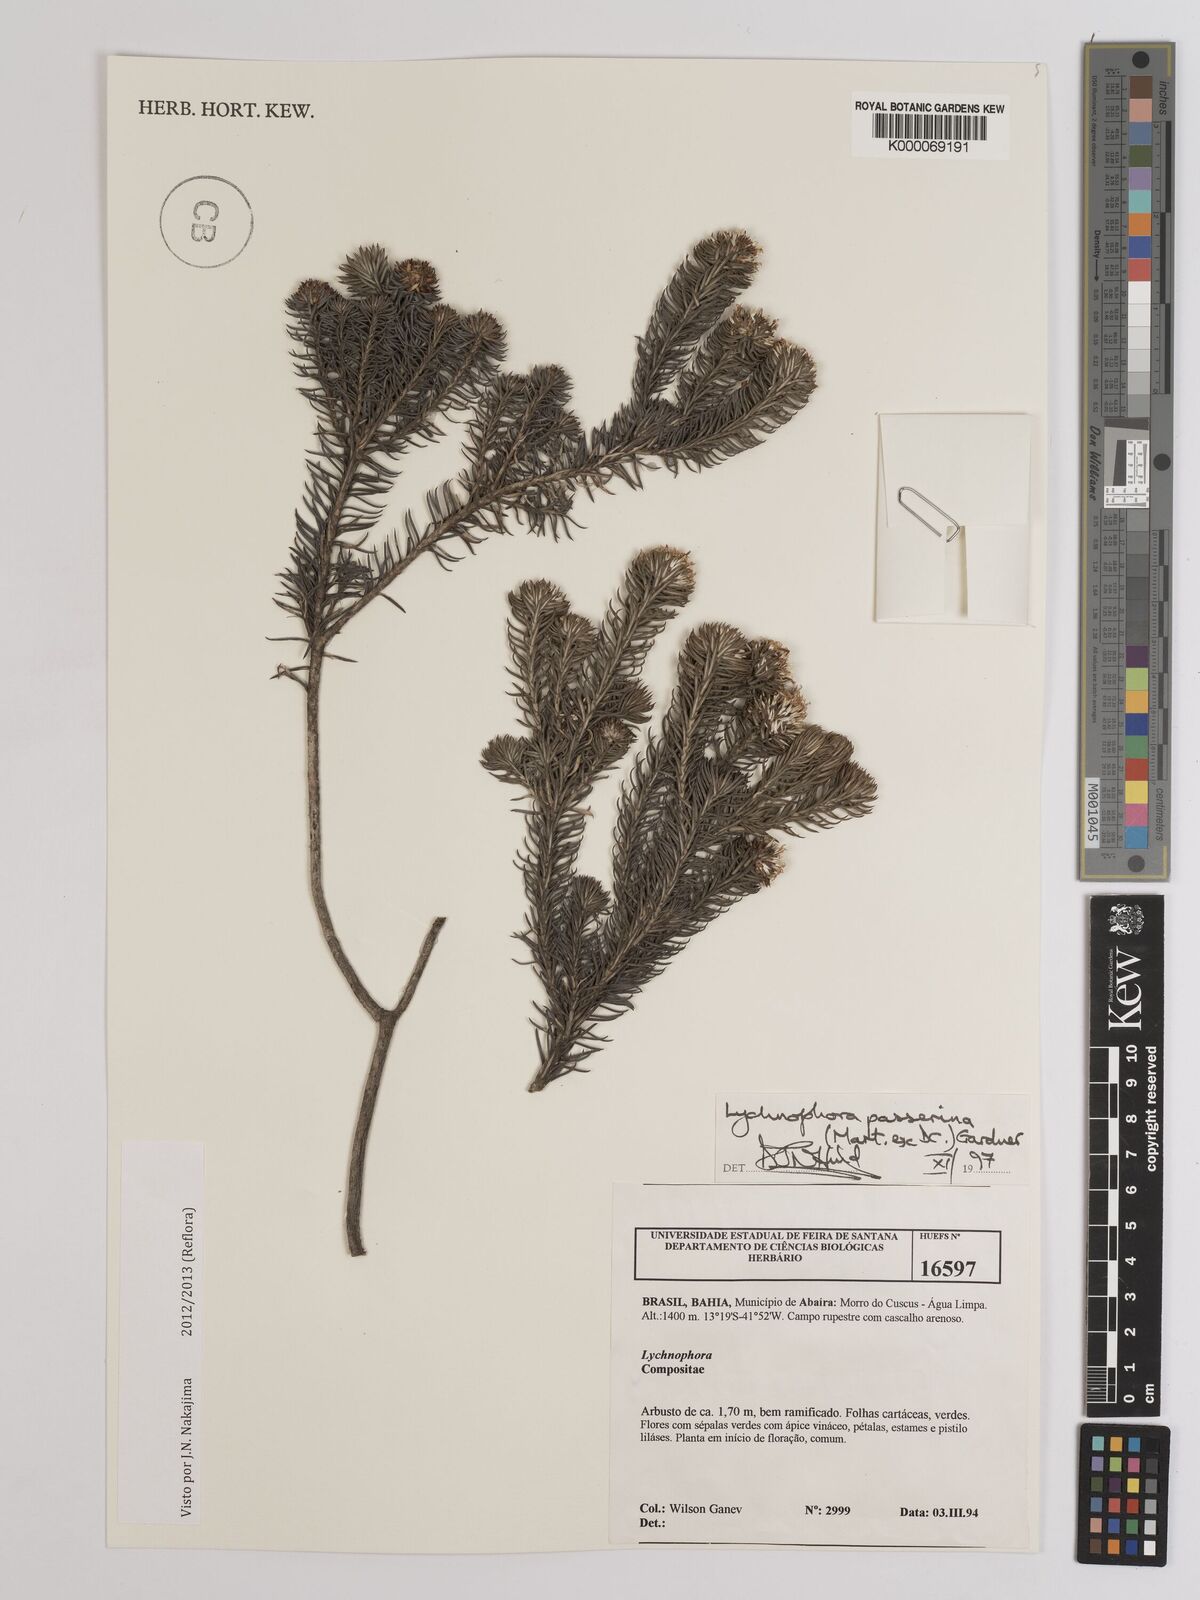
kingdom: Plantae
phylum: Tracheophyta
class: Magnoliopsida
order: Asterales
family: Asteraceae
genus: Lychnophora
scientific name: Lychnophora passerina
